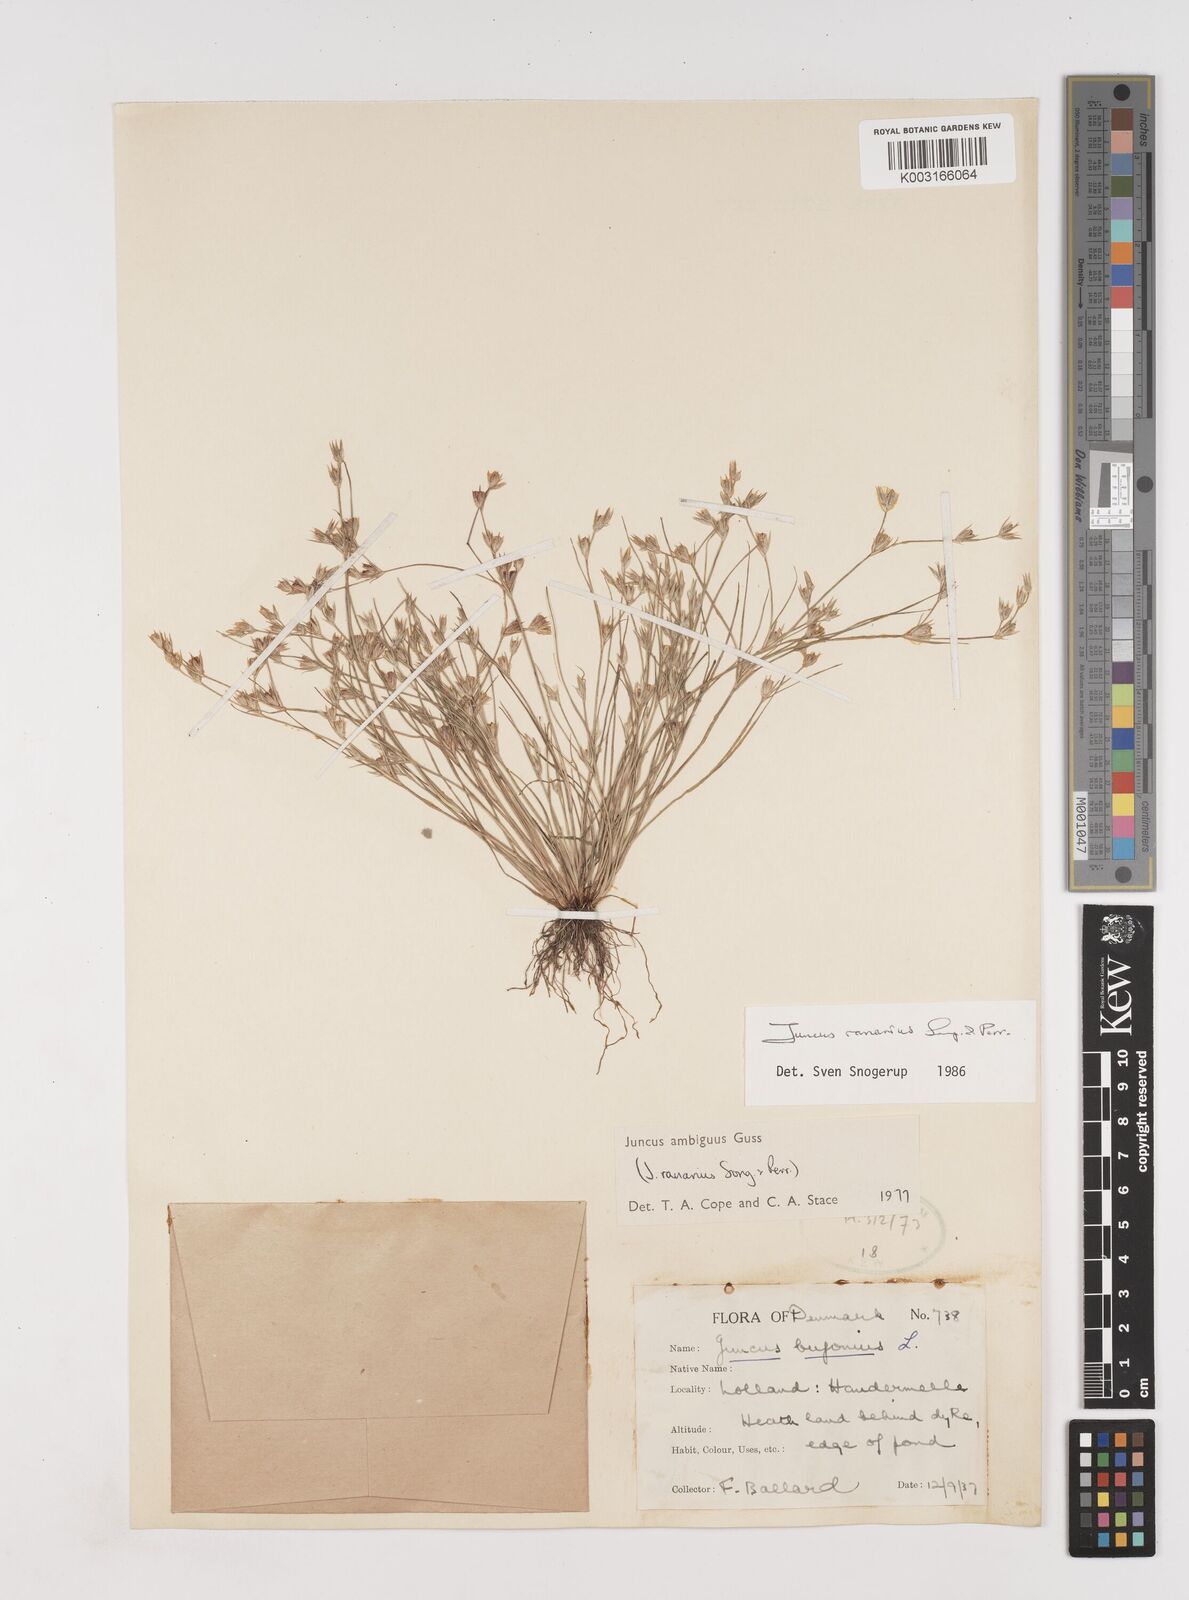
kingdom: Plantae
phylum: Tracheophyta
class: Liliopsida
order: Poales
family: Juncaceae
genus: Juncus
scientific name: Juncus hybridus
